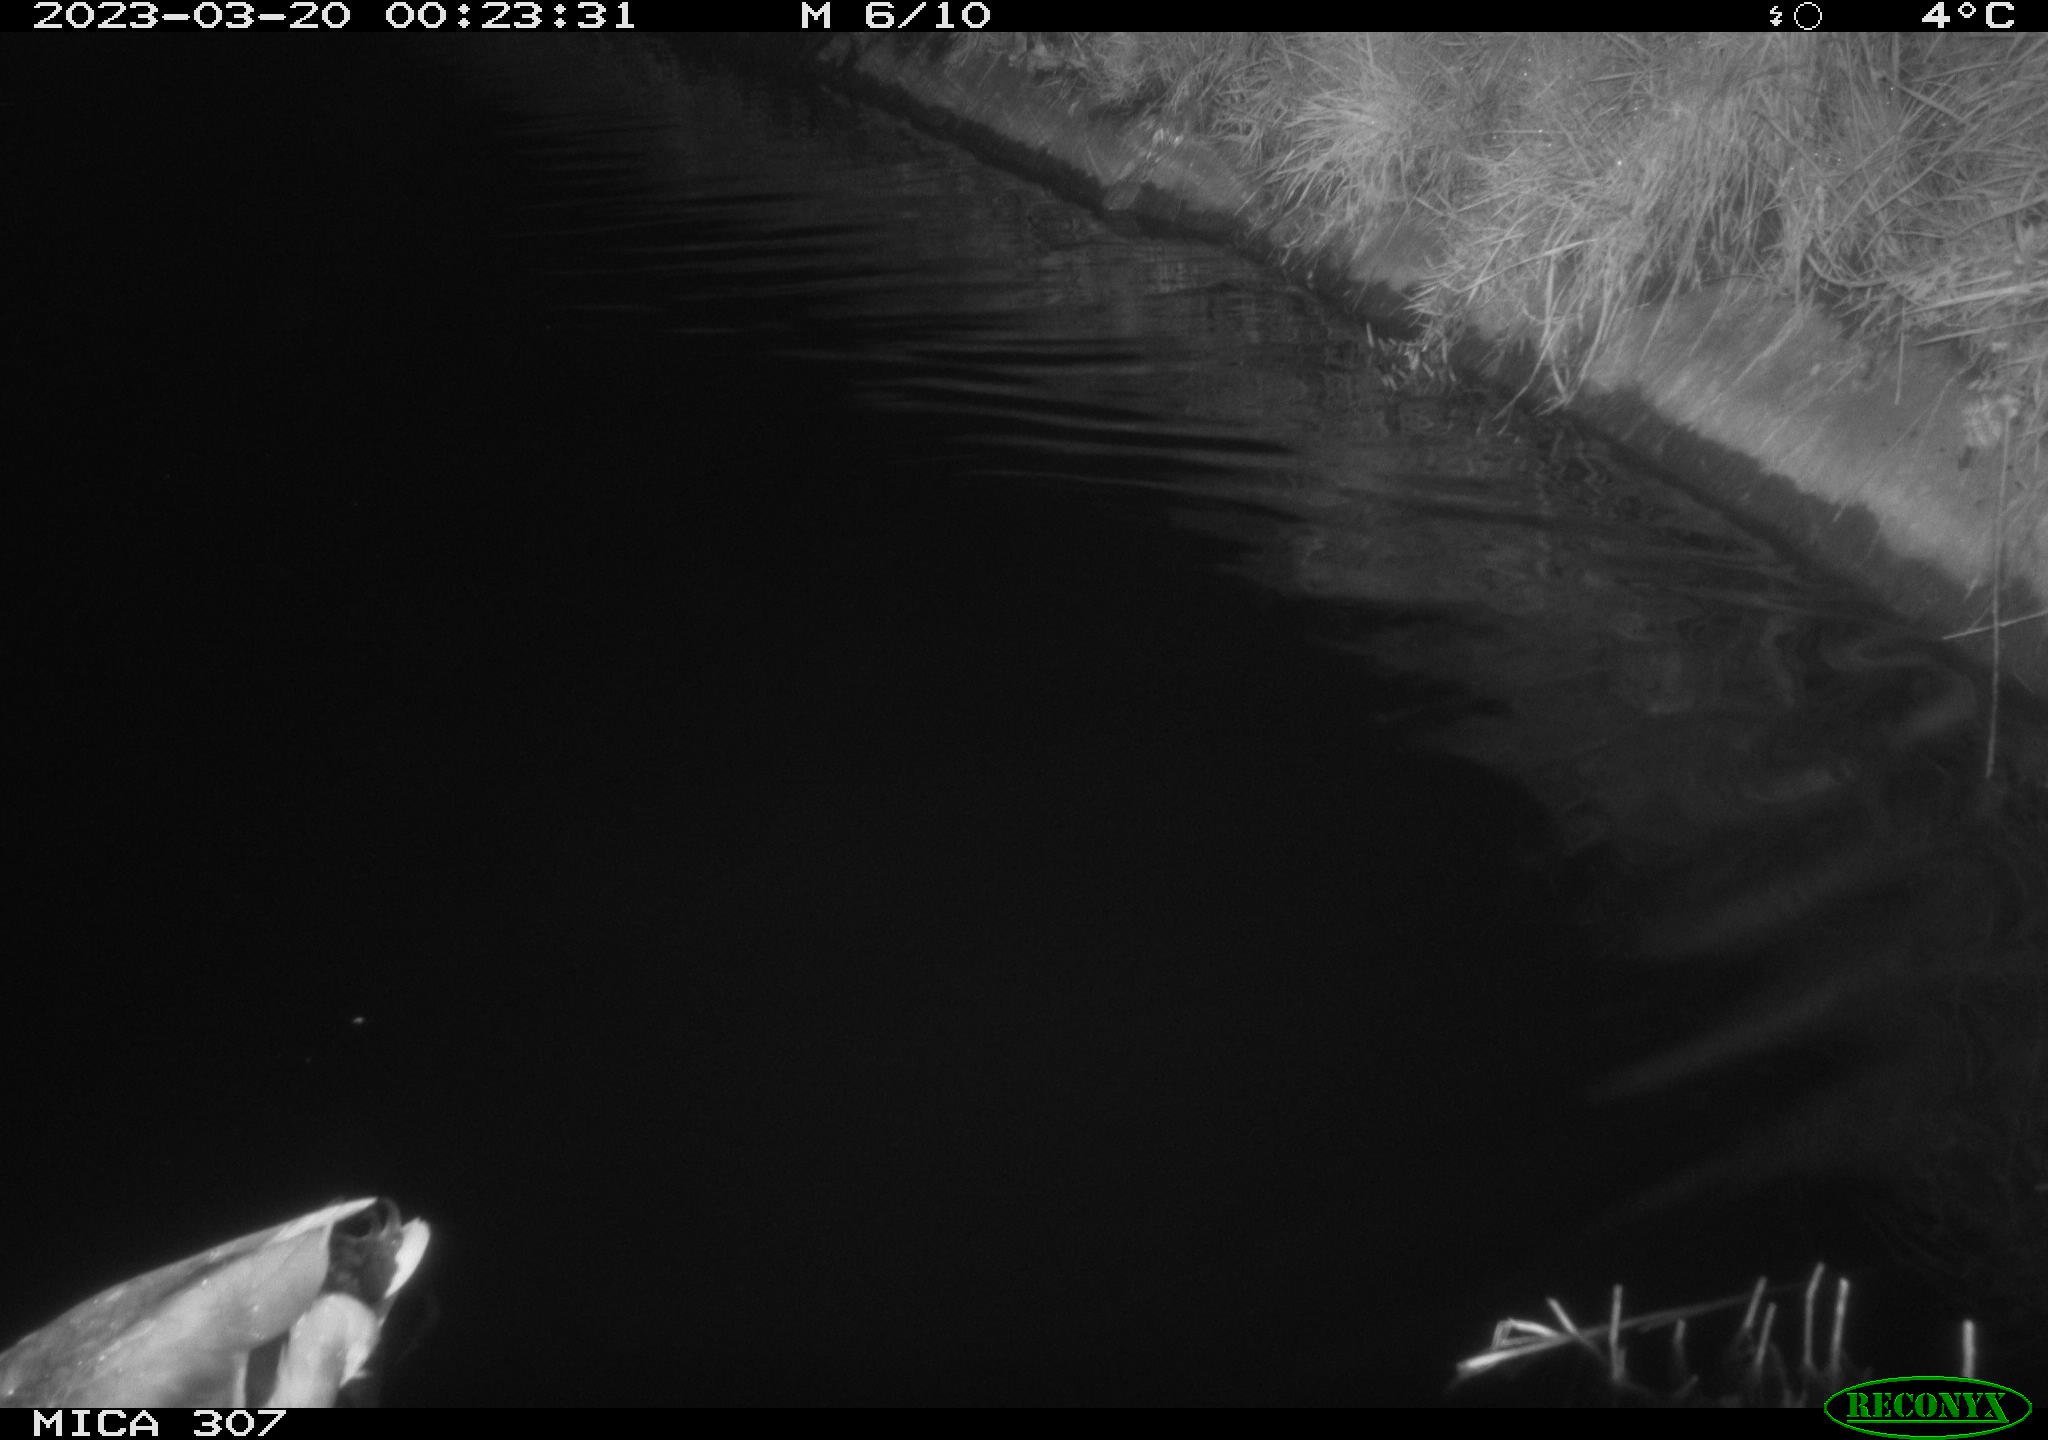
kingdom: Animalia
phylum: Chordata
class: Aves
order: Anseriformes
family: Anatidae
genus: Anas
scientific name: Anas
